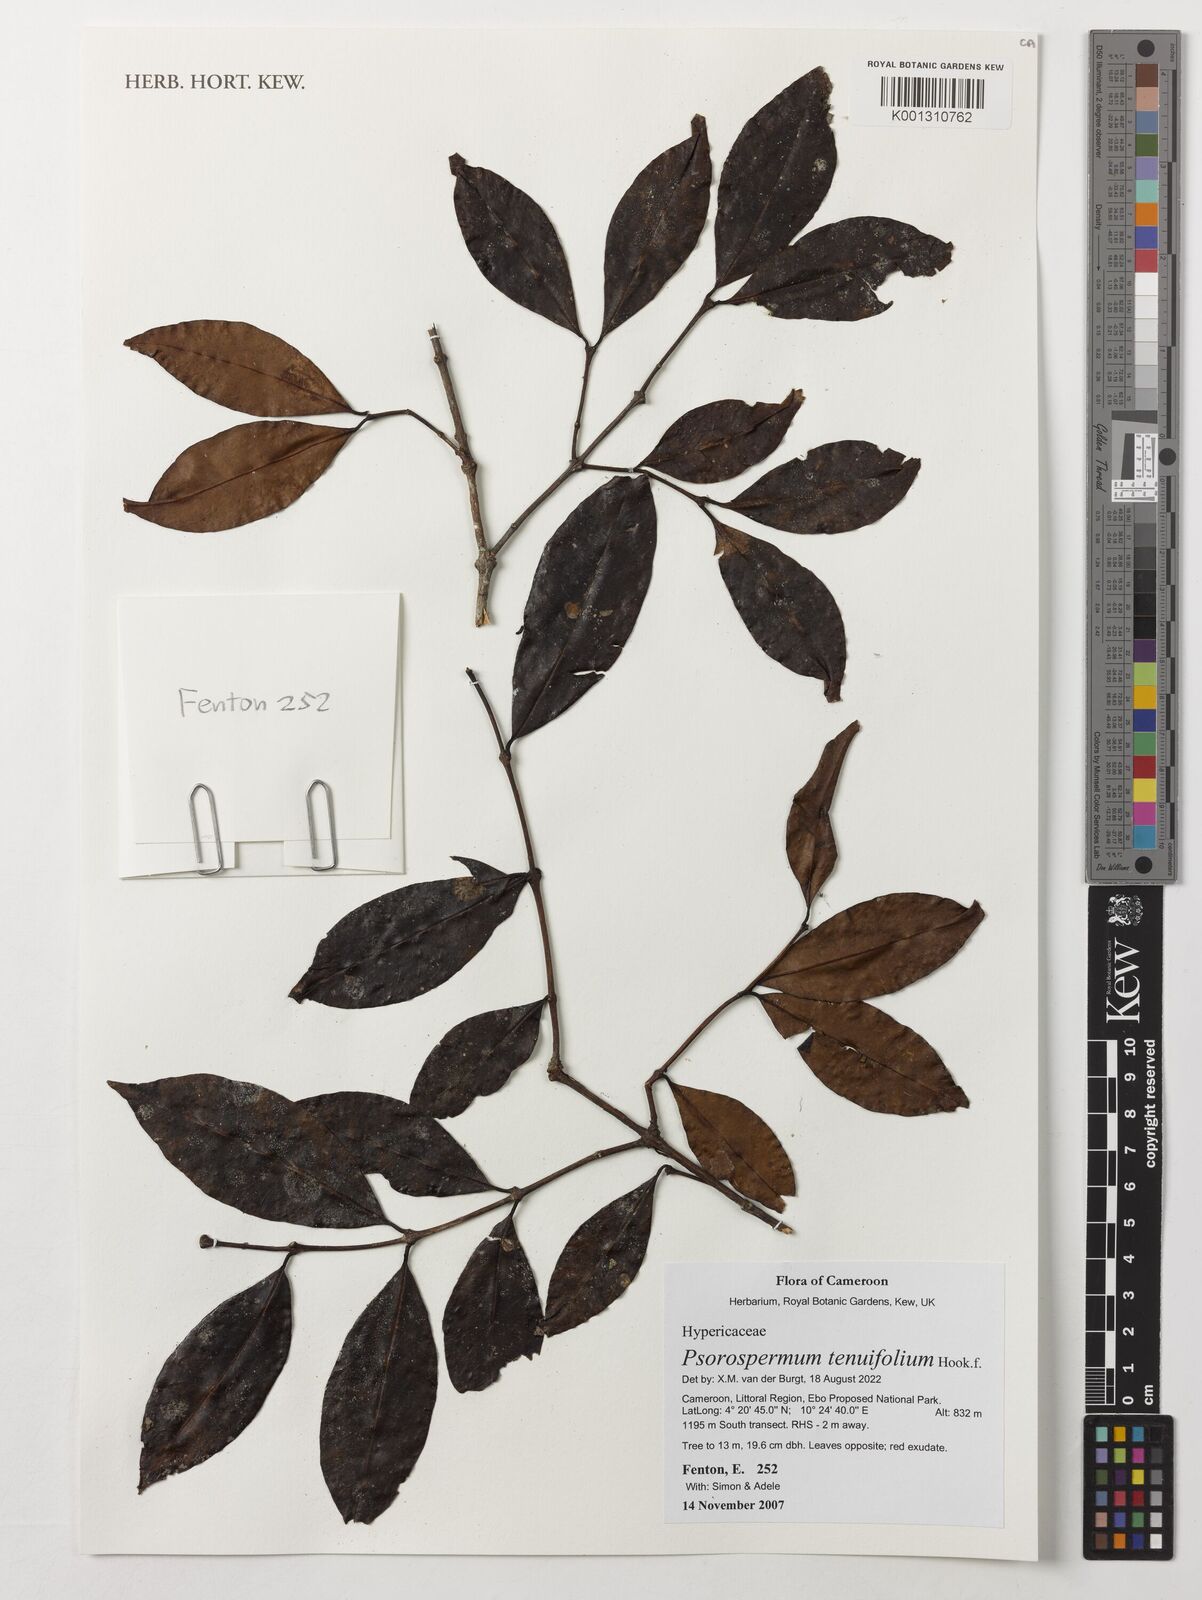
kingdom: Plantae
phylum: Tracheophyta
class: Magnoliopsida
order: Malpighiales
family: Hypericaceae
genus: Psorospermum
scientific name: Psorospermum tenuifolium
